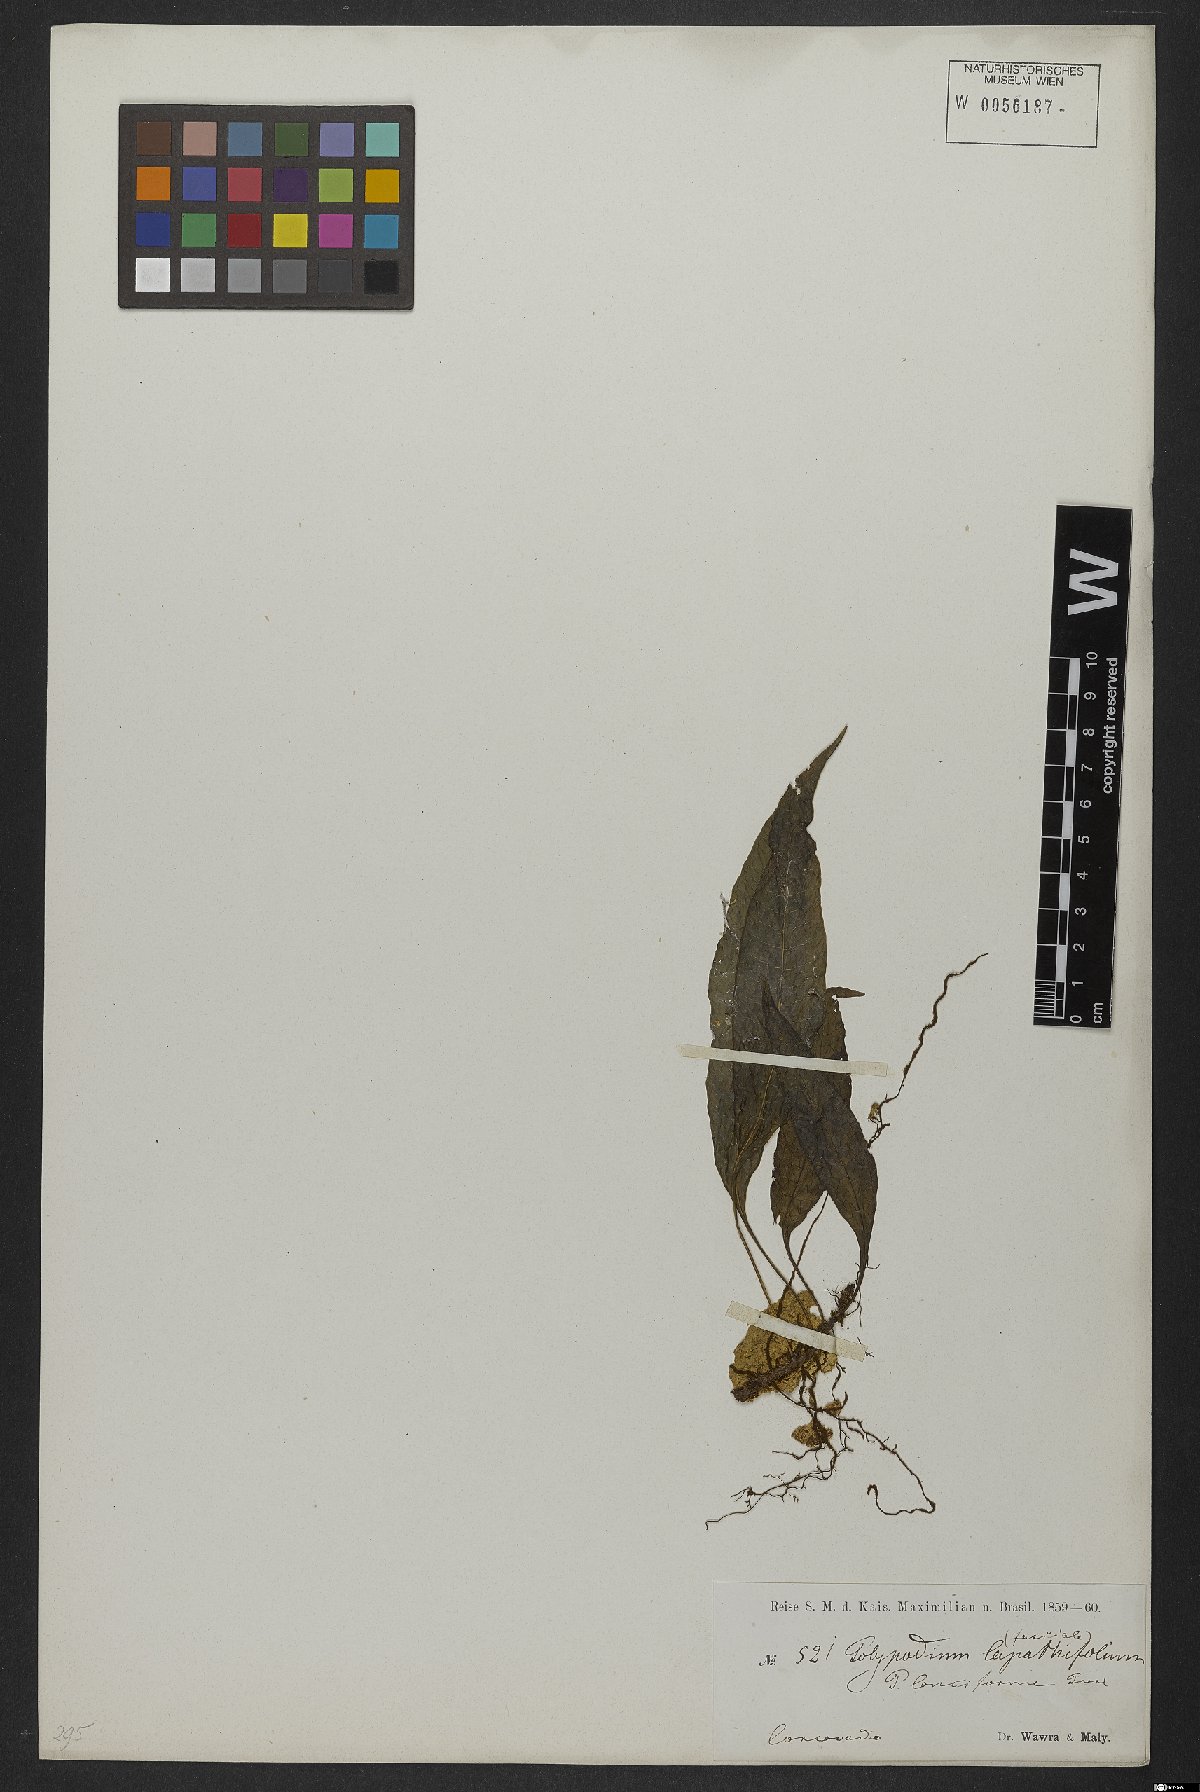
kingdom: Plantae
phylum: Tracheophyta
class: Polypodiopsida
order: Polypodiales
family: Polypodiaceae
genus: Serpocaulon
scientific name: Serpocaulon levigatum
